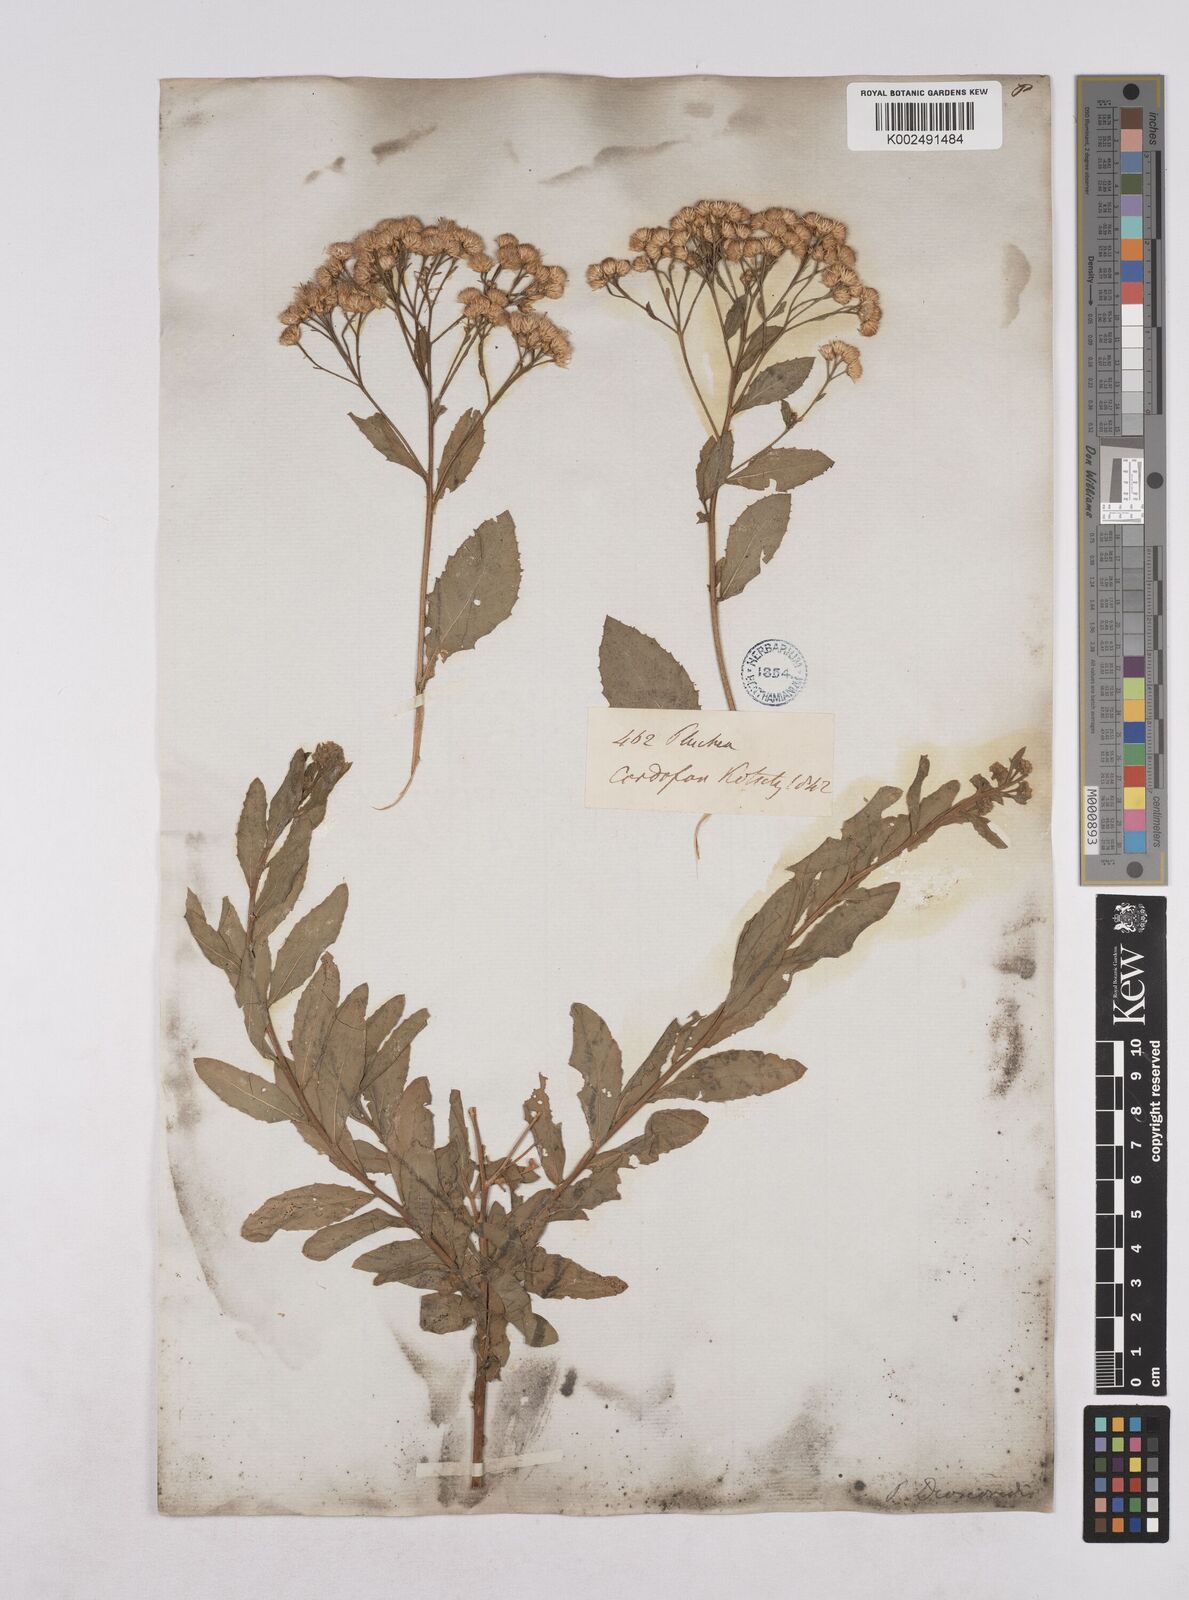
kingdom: Plantae
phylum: Tracheophyta
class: Magnoliopsida
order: Asterales
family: Asteraceae
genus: Pluchea
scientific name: Pluchea dioscoridis
